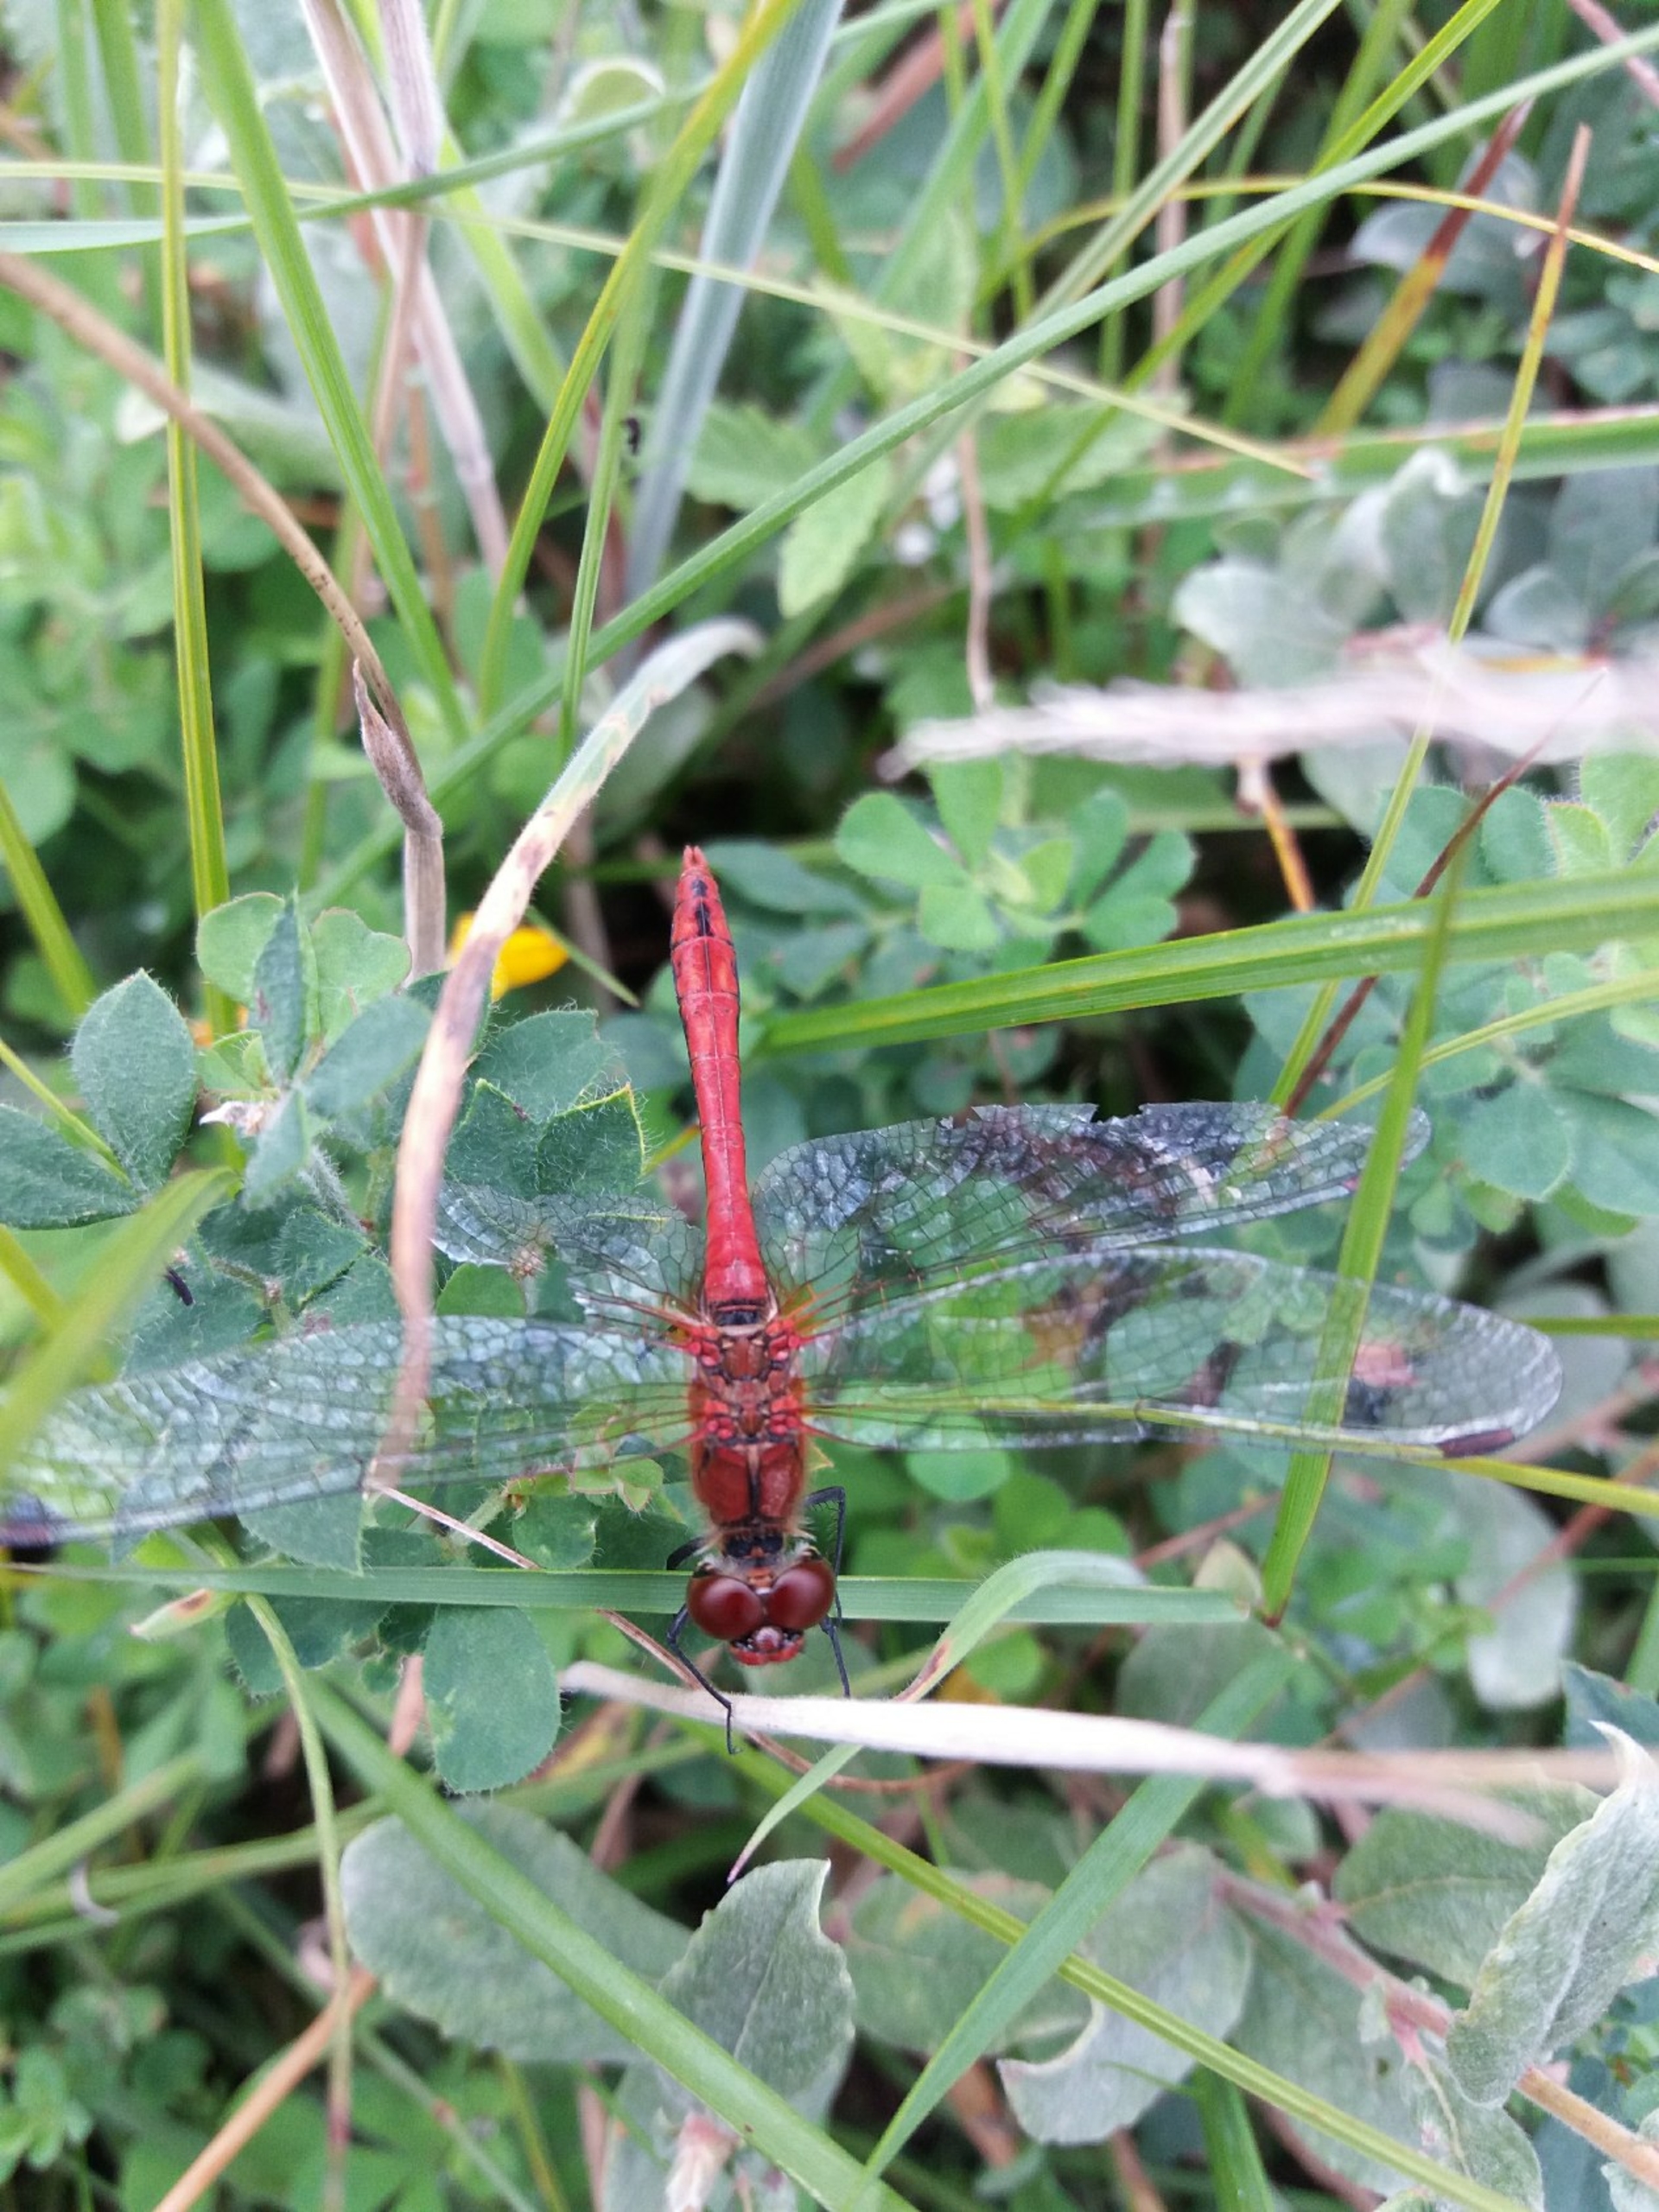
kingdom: Animalia
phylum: Arthropoda
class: Insecta
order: Odonata
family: Libellulidae
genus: Sympetrum
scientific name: Sympetrum sanguineum
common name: Blodrød hedelibel
